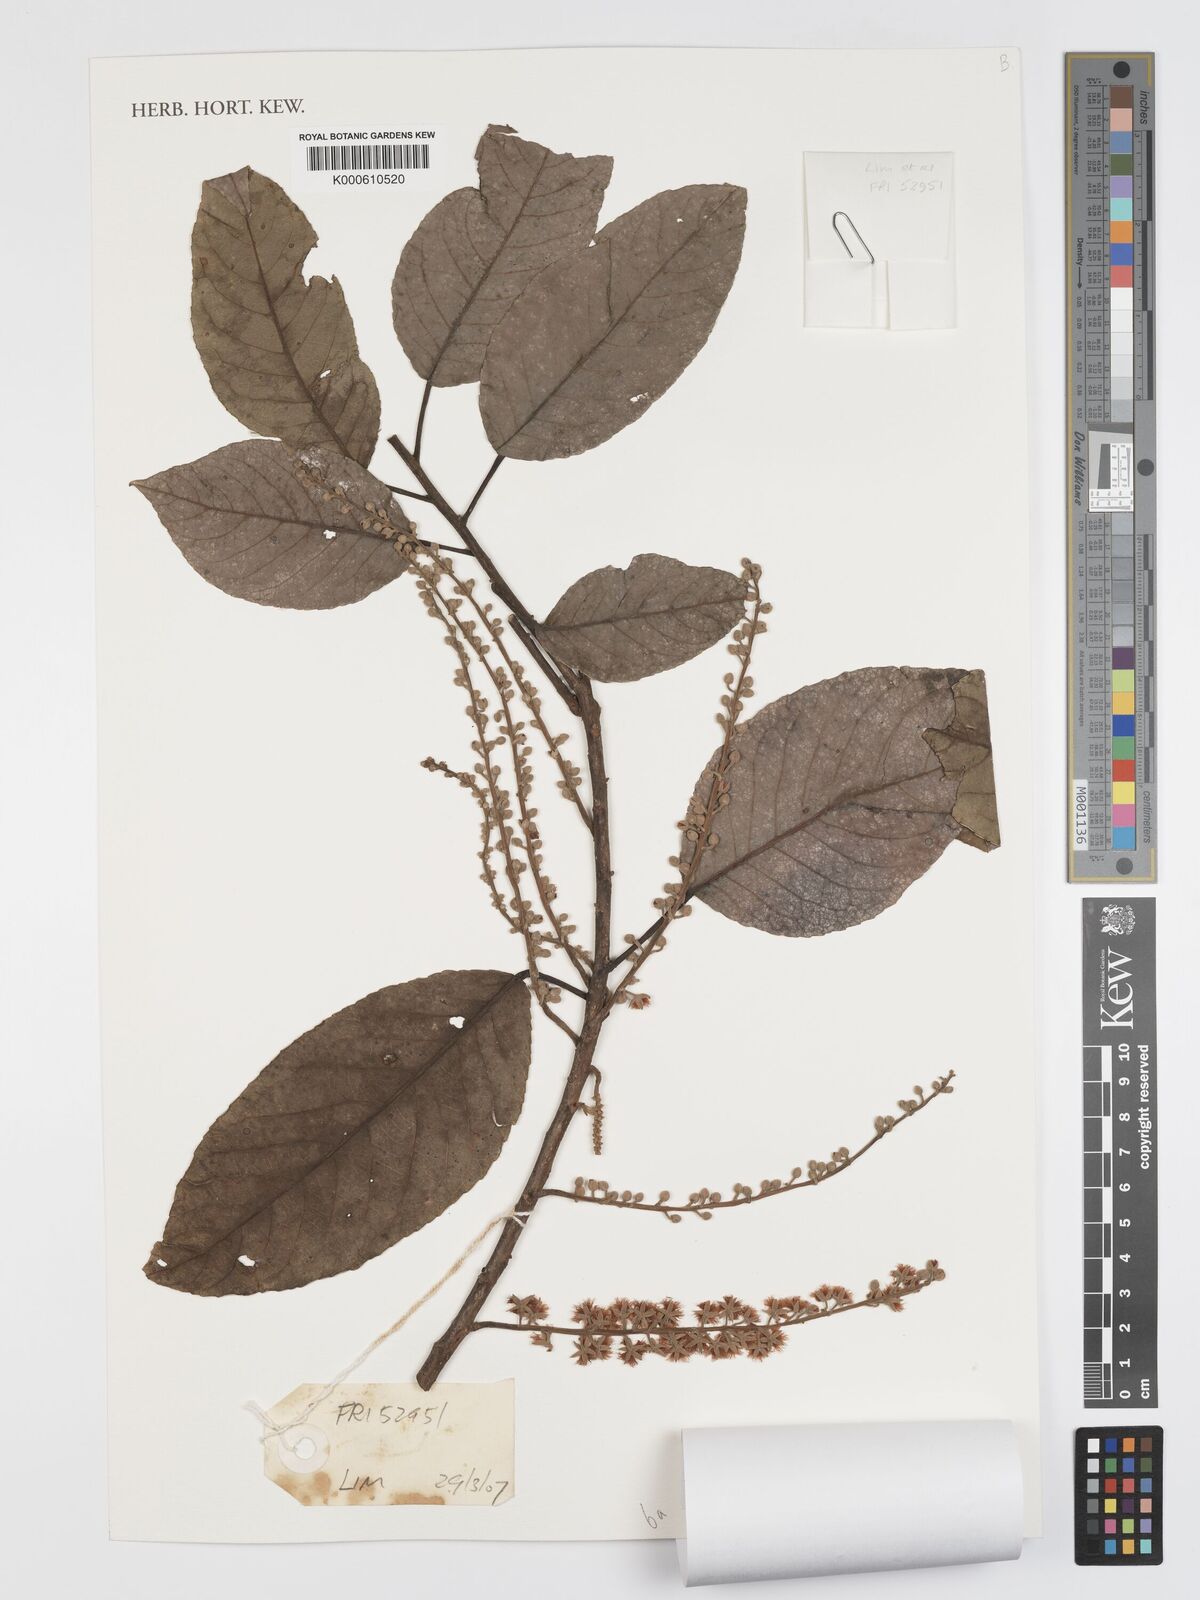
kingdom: Plantae
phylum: Tracheophyta
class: Magnoliopsida
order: Oxalidales
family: Elaeocarpaceae
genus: Elaeocarpus
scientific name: Elaeocarpus robustus
